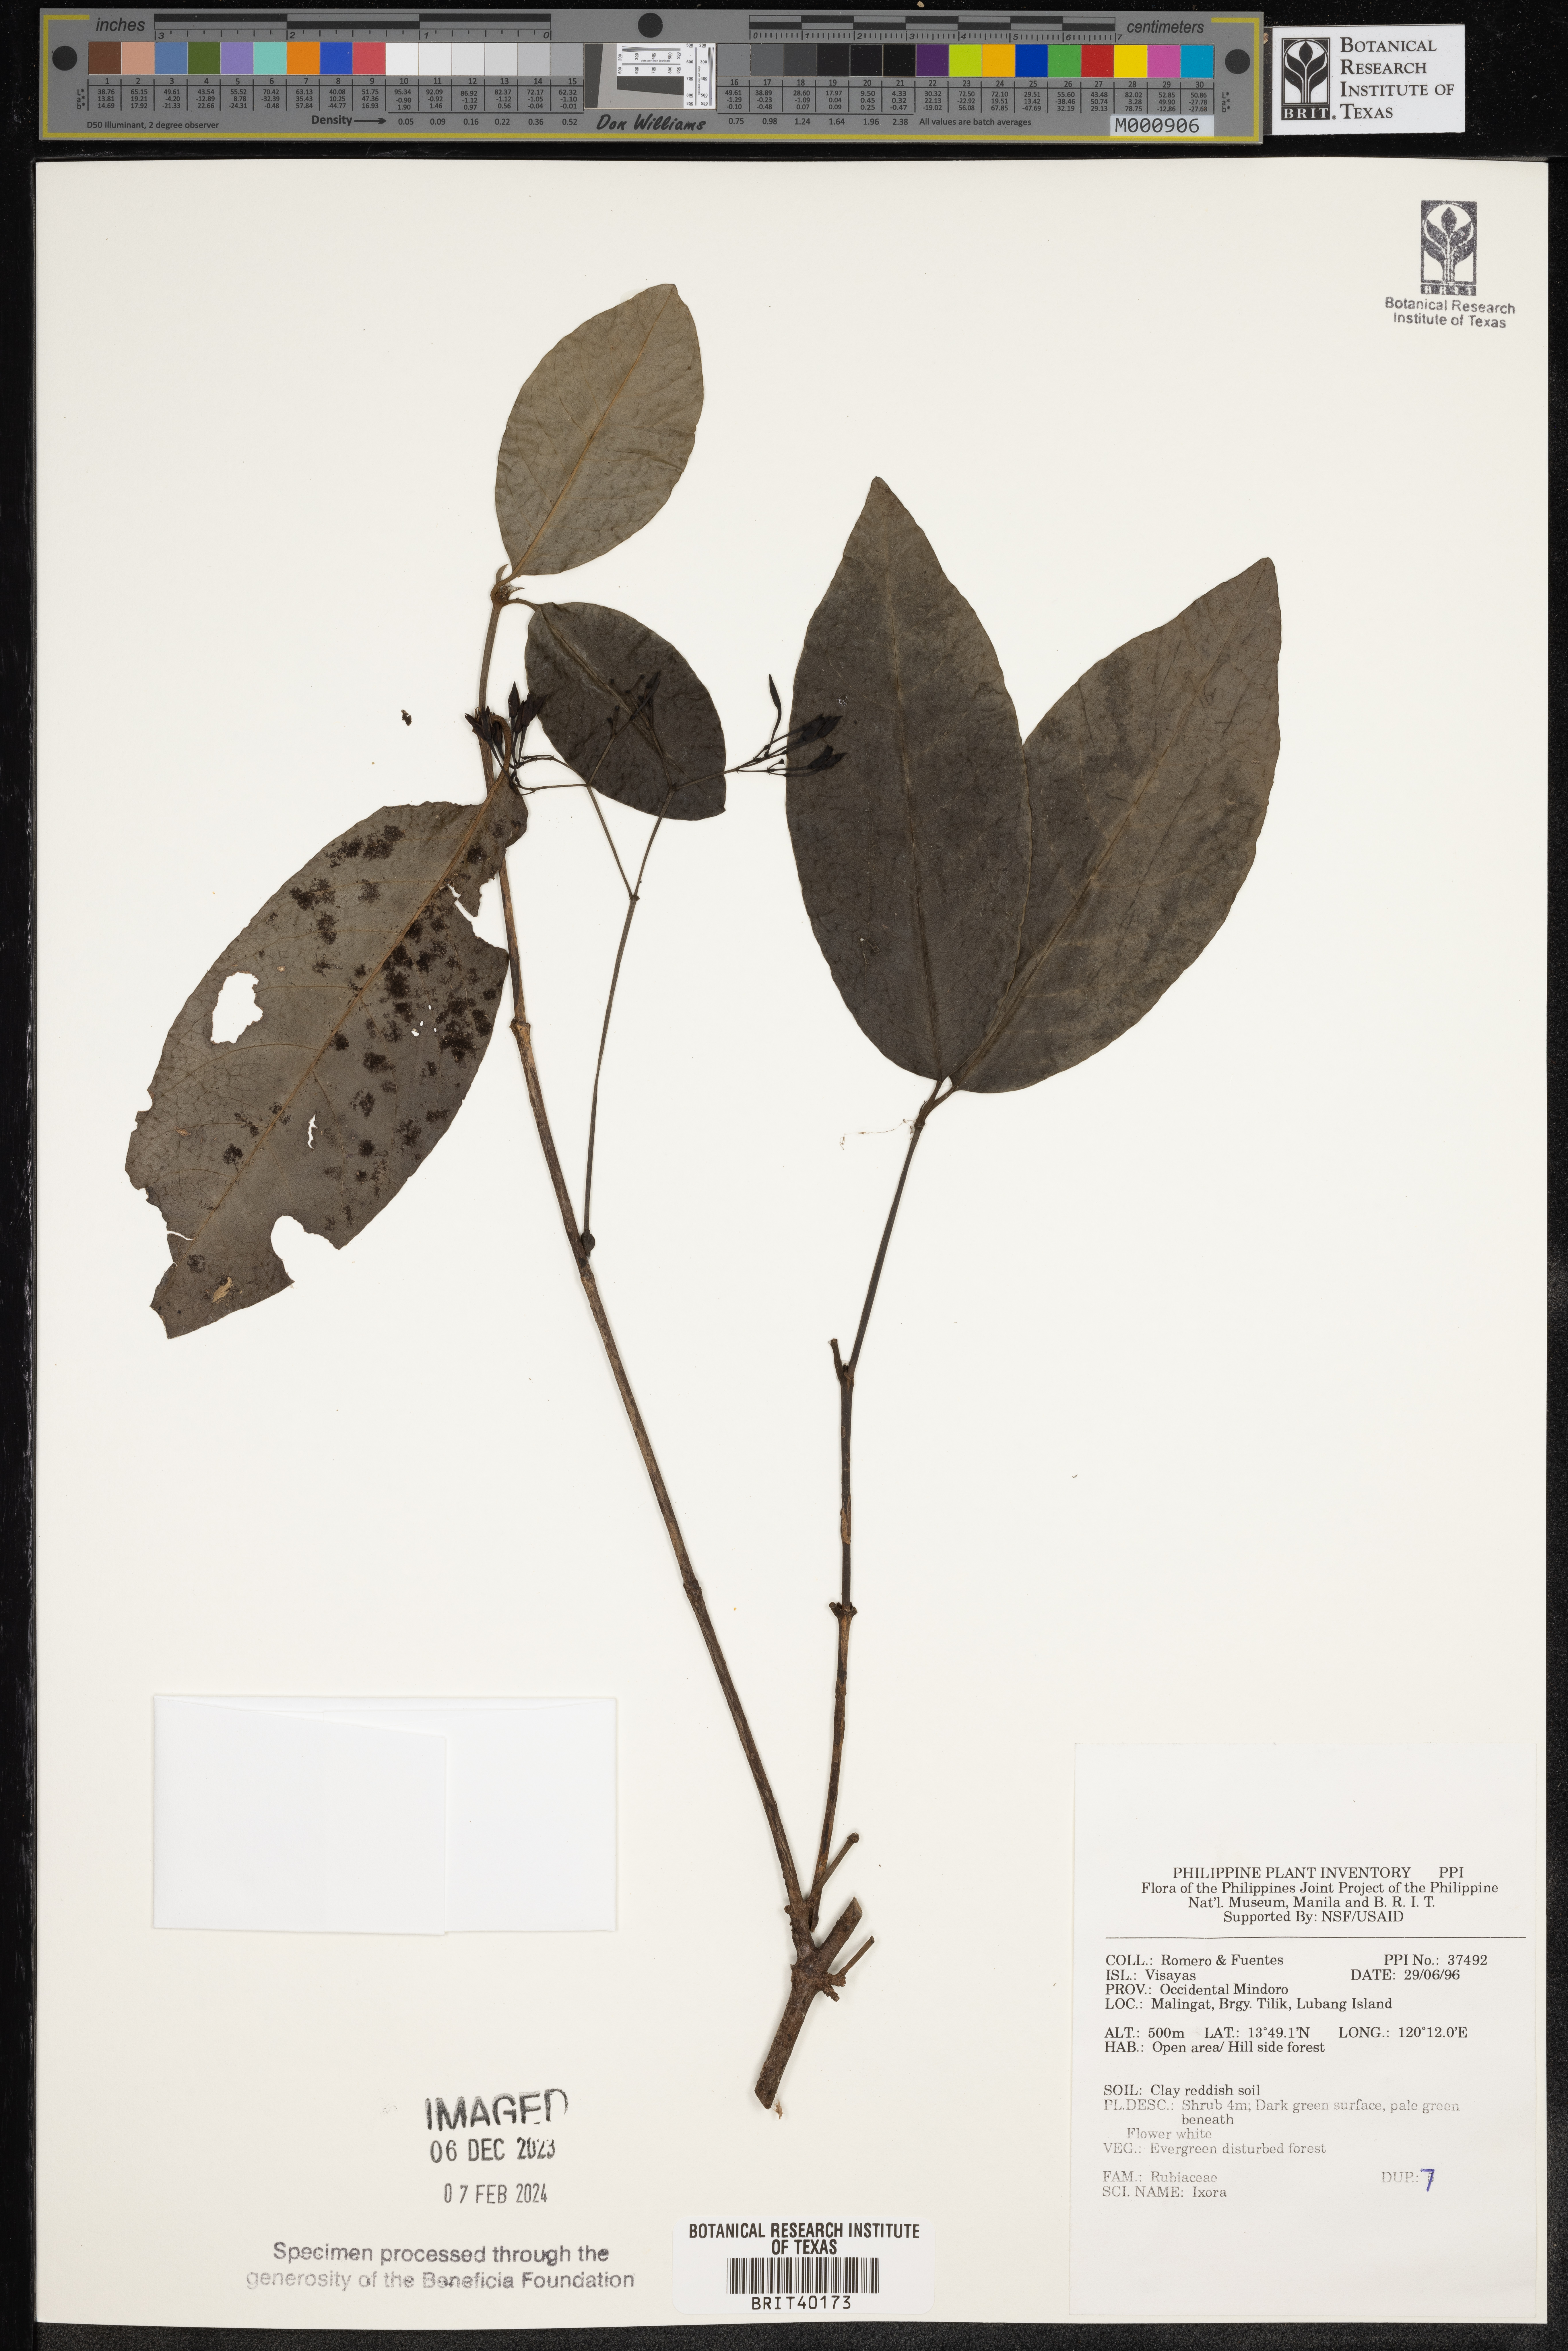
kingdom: Plantae
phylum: Tracheophyta
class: Magnoliopsida
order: Gentianales
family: Rubiaceae
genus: Ixora
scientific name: Ixora
